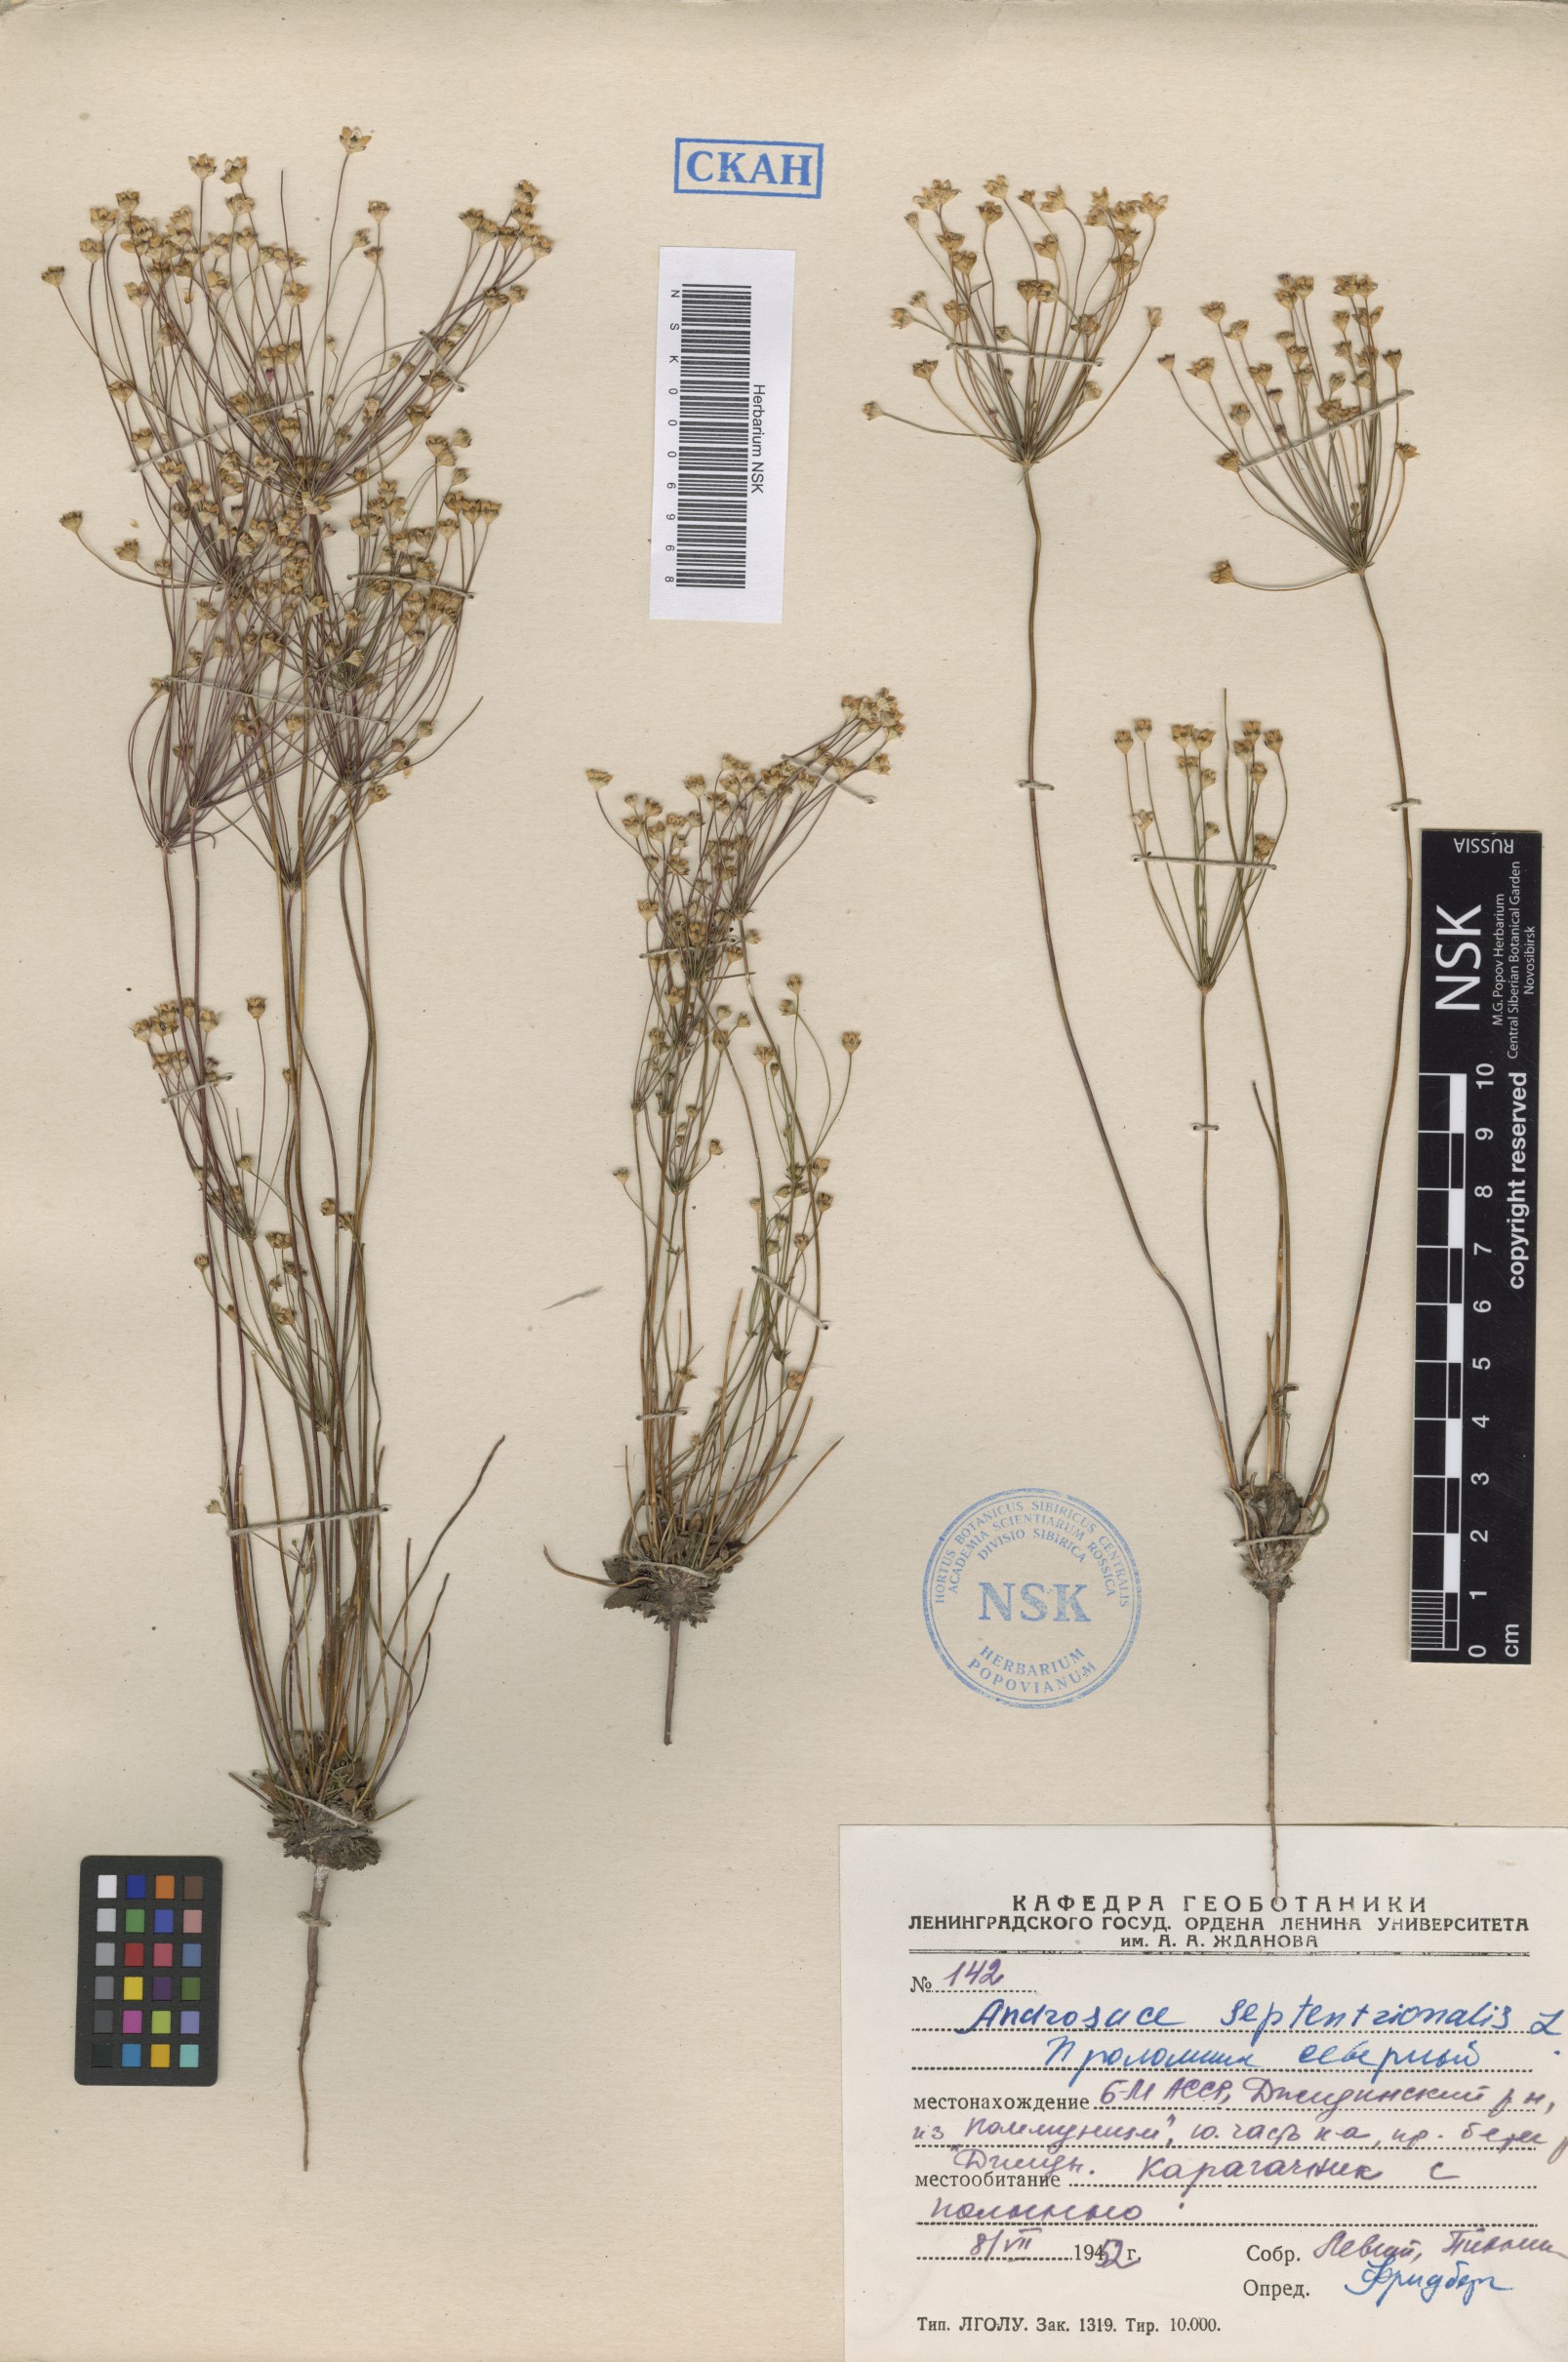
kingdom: Plantae
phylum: Tracheophyta
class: Magnoliopsida
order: Ericales
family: Primulaceae
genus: Androsace
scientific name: Androsace septentrionalis
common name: Hairy northern fairy-candelabra
